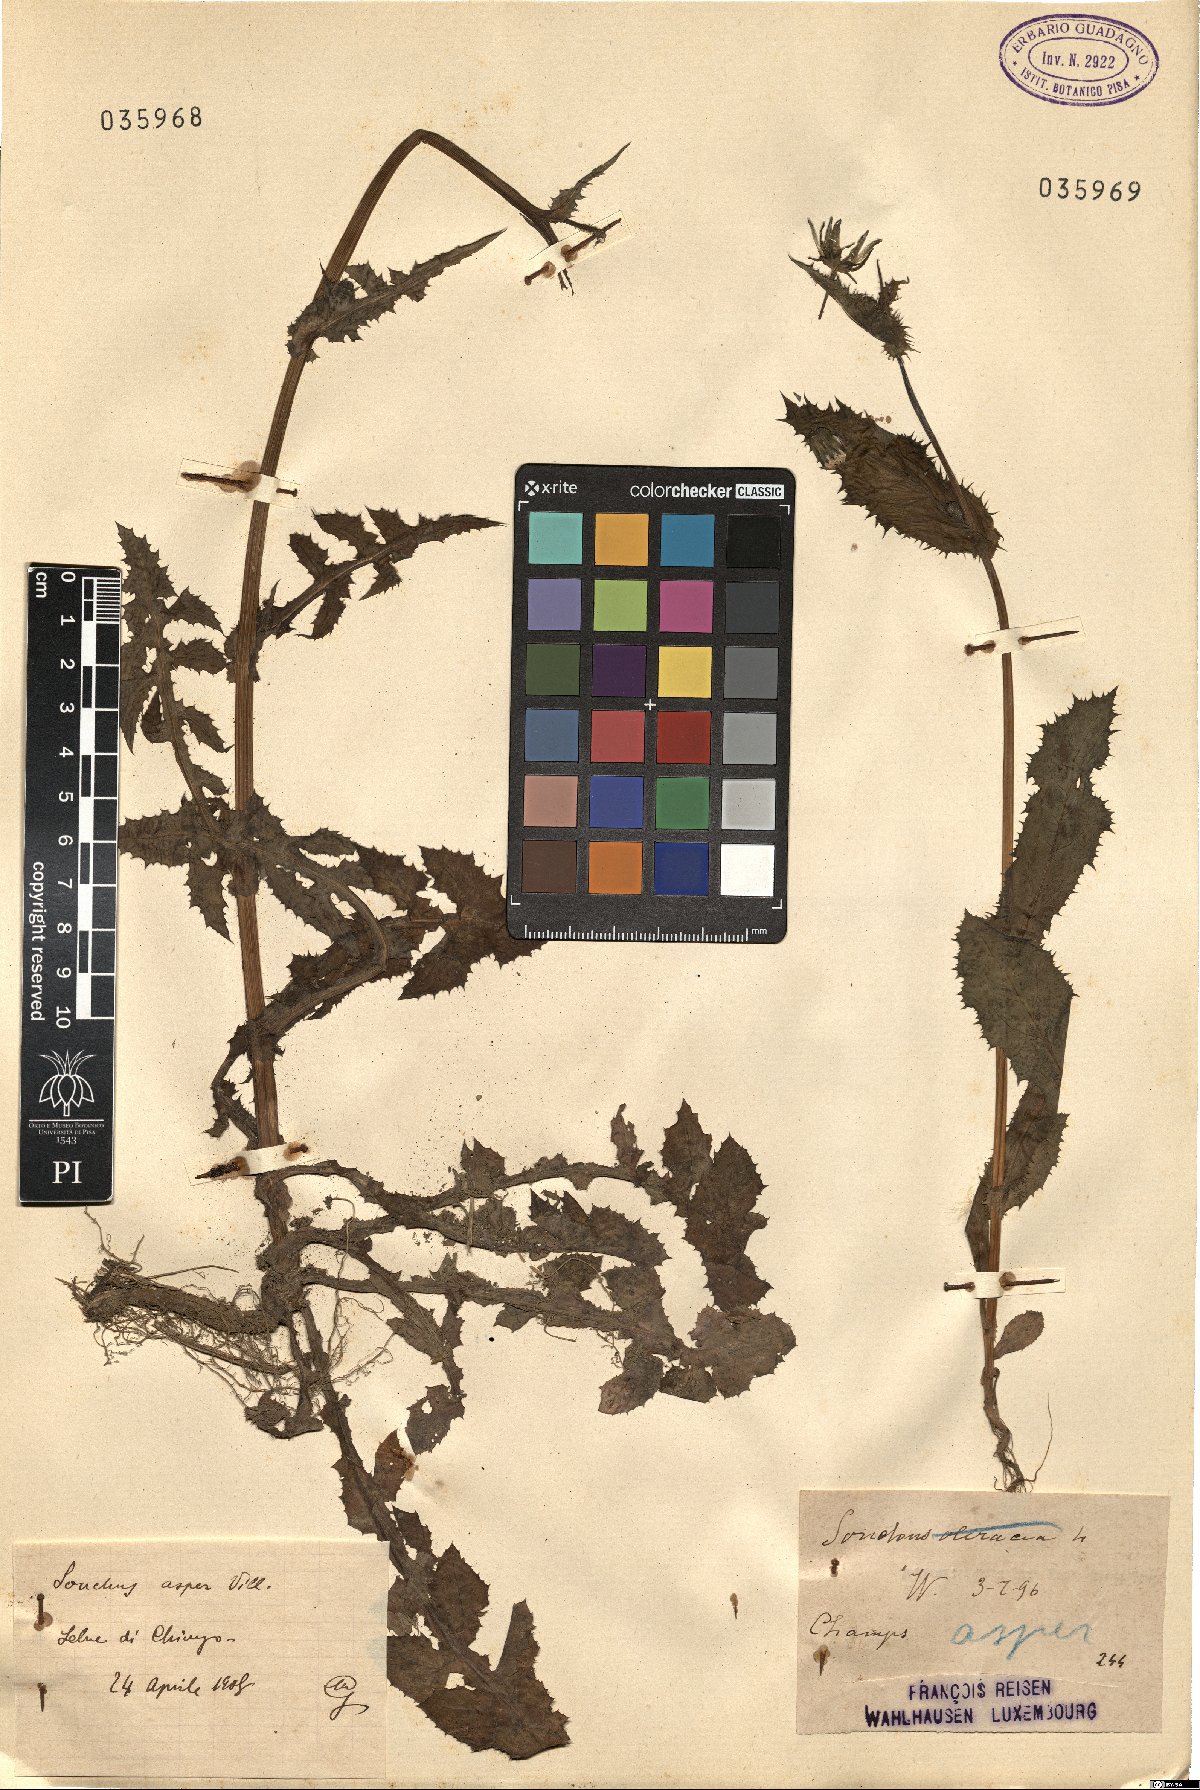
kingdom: Plantae
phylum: Tracheophyta
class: Magnoliopsida
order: Asterales
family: Asteraceae
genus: Sonchus
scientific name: Sonchus asper
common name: Prickly sow-thistle
